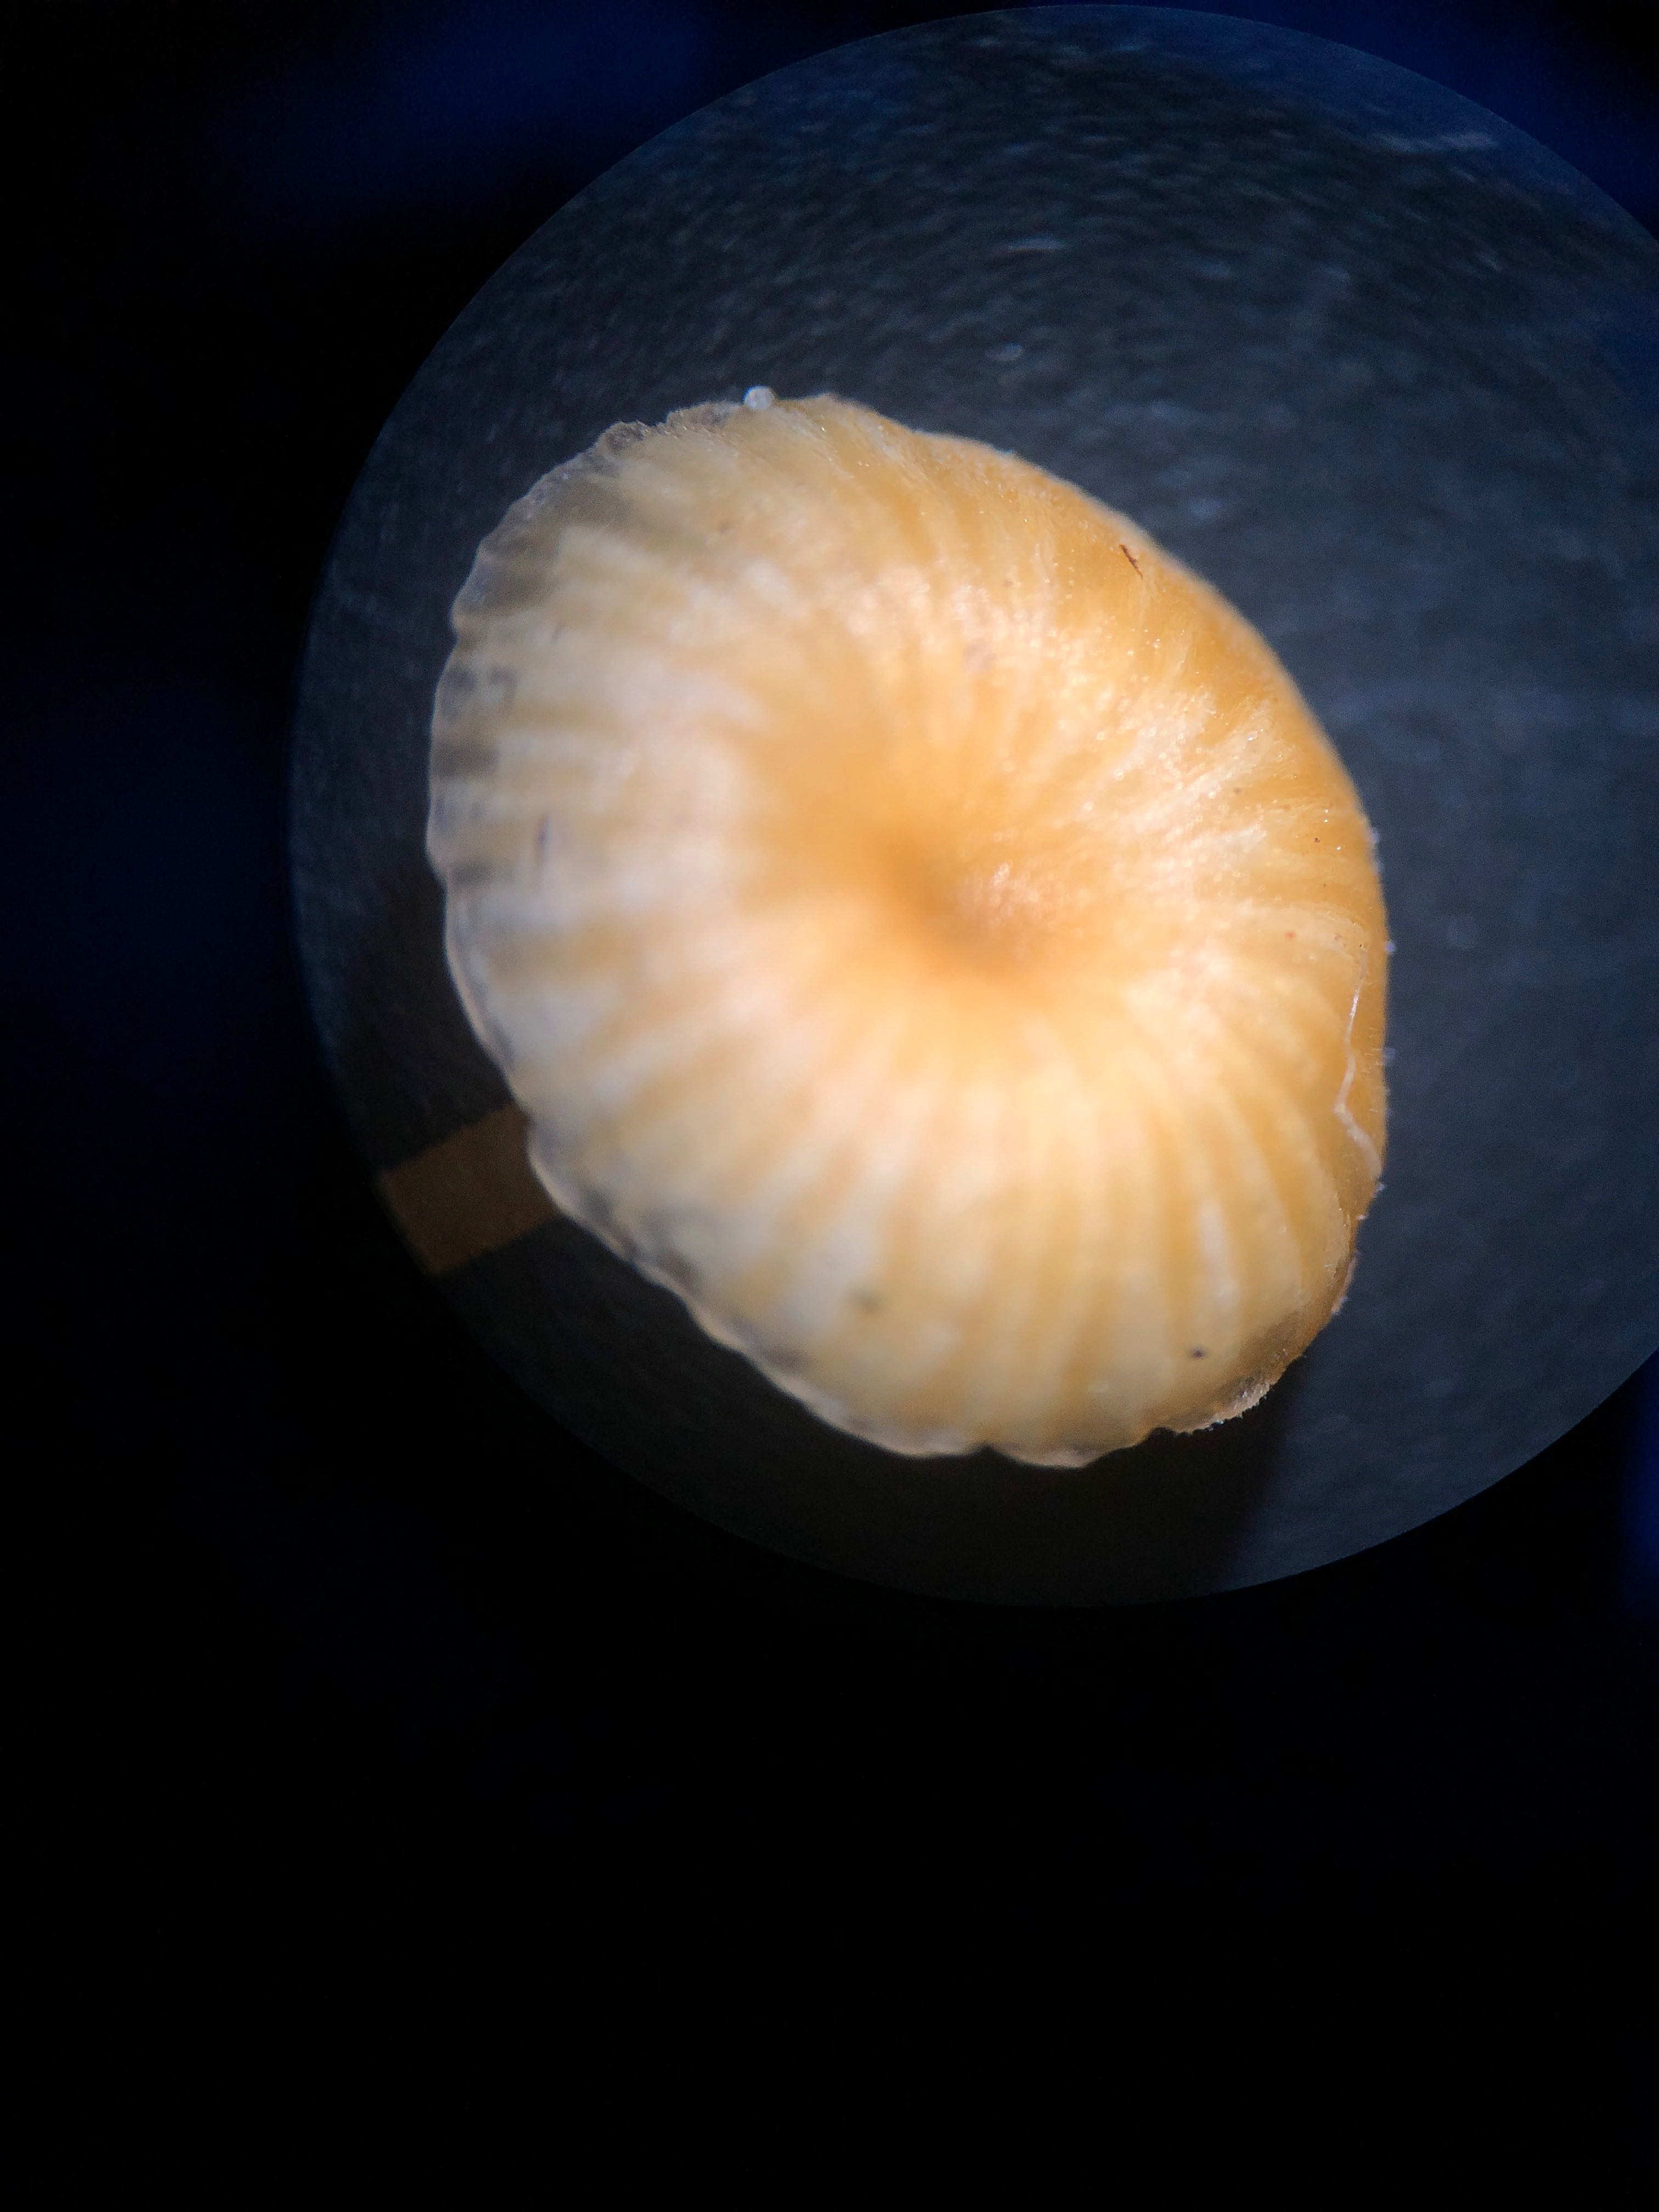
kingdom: Fungi
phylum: Basidiomycota
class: Agaricomycetes
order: Hymenochaetales
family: Rickenellaceae
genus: Rickenella
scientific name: Rickenella fibula
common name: orange mosnavlehat
